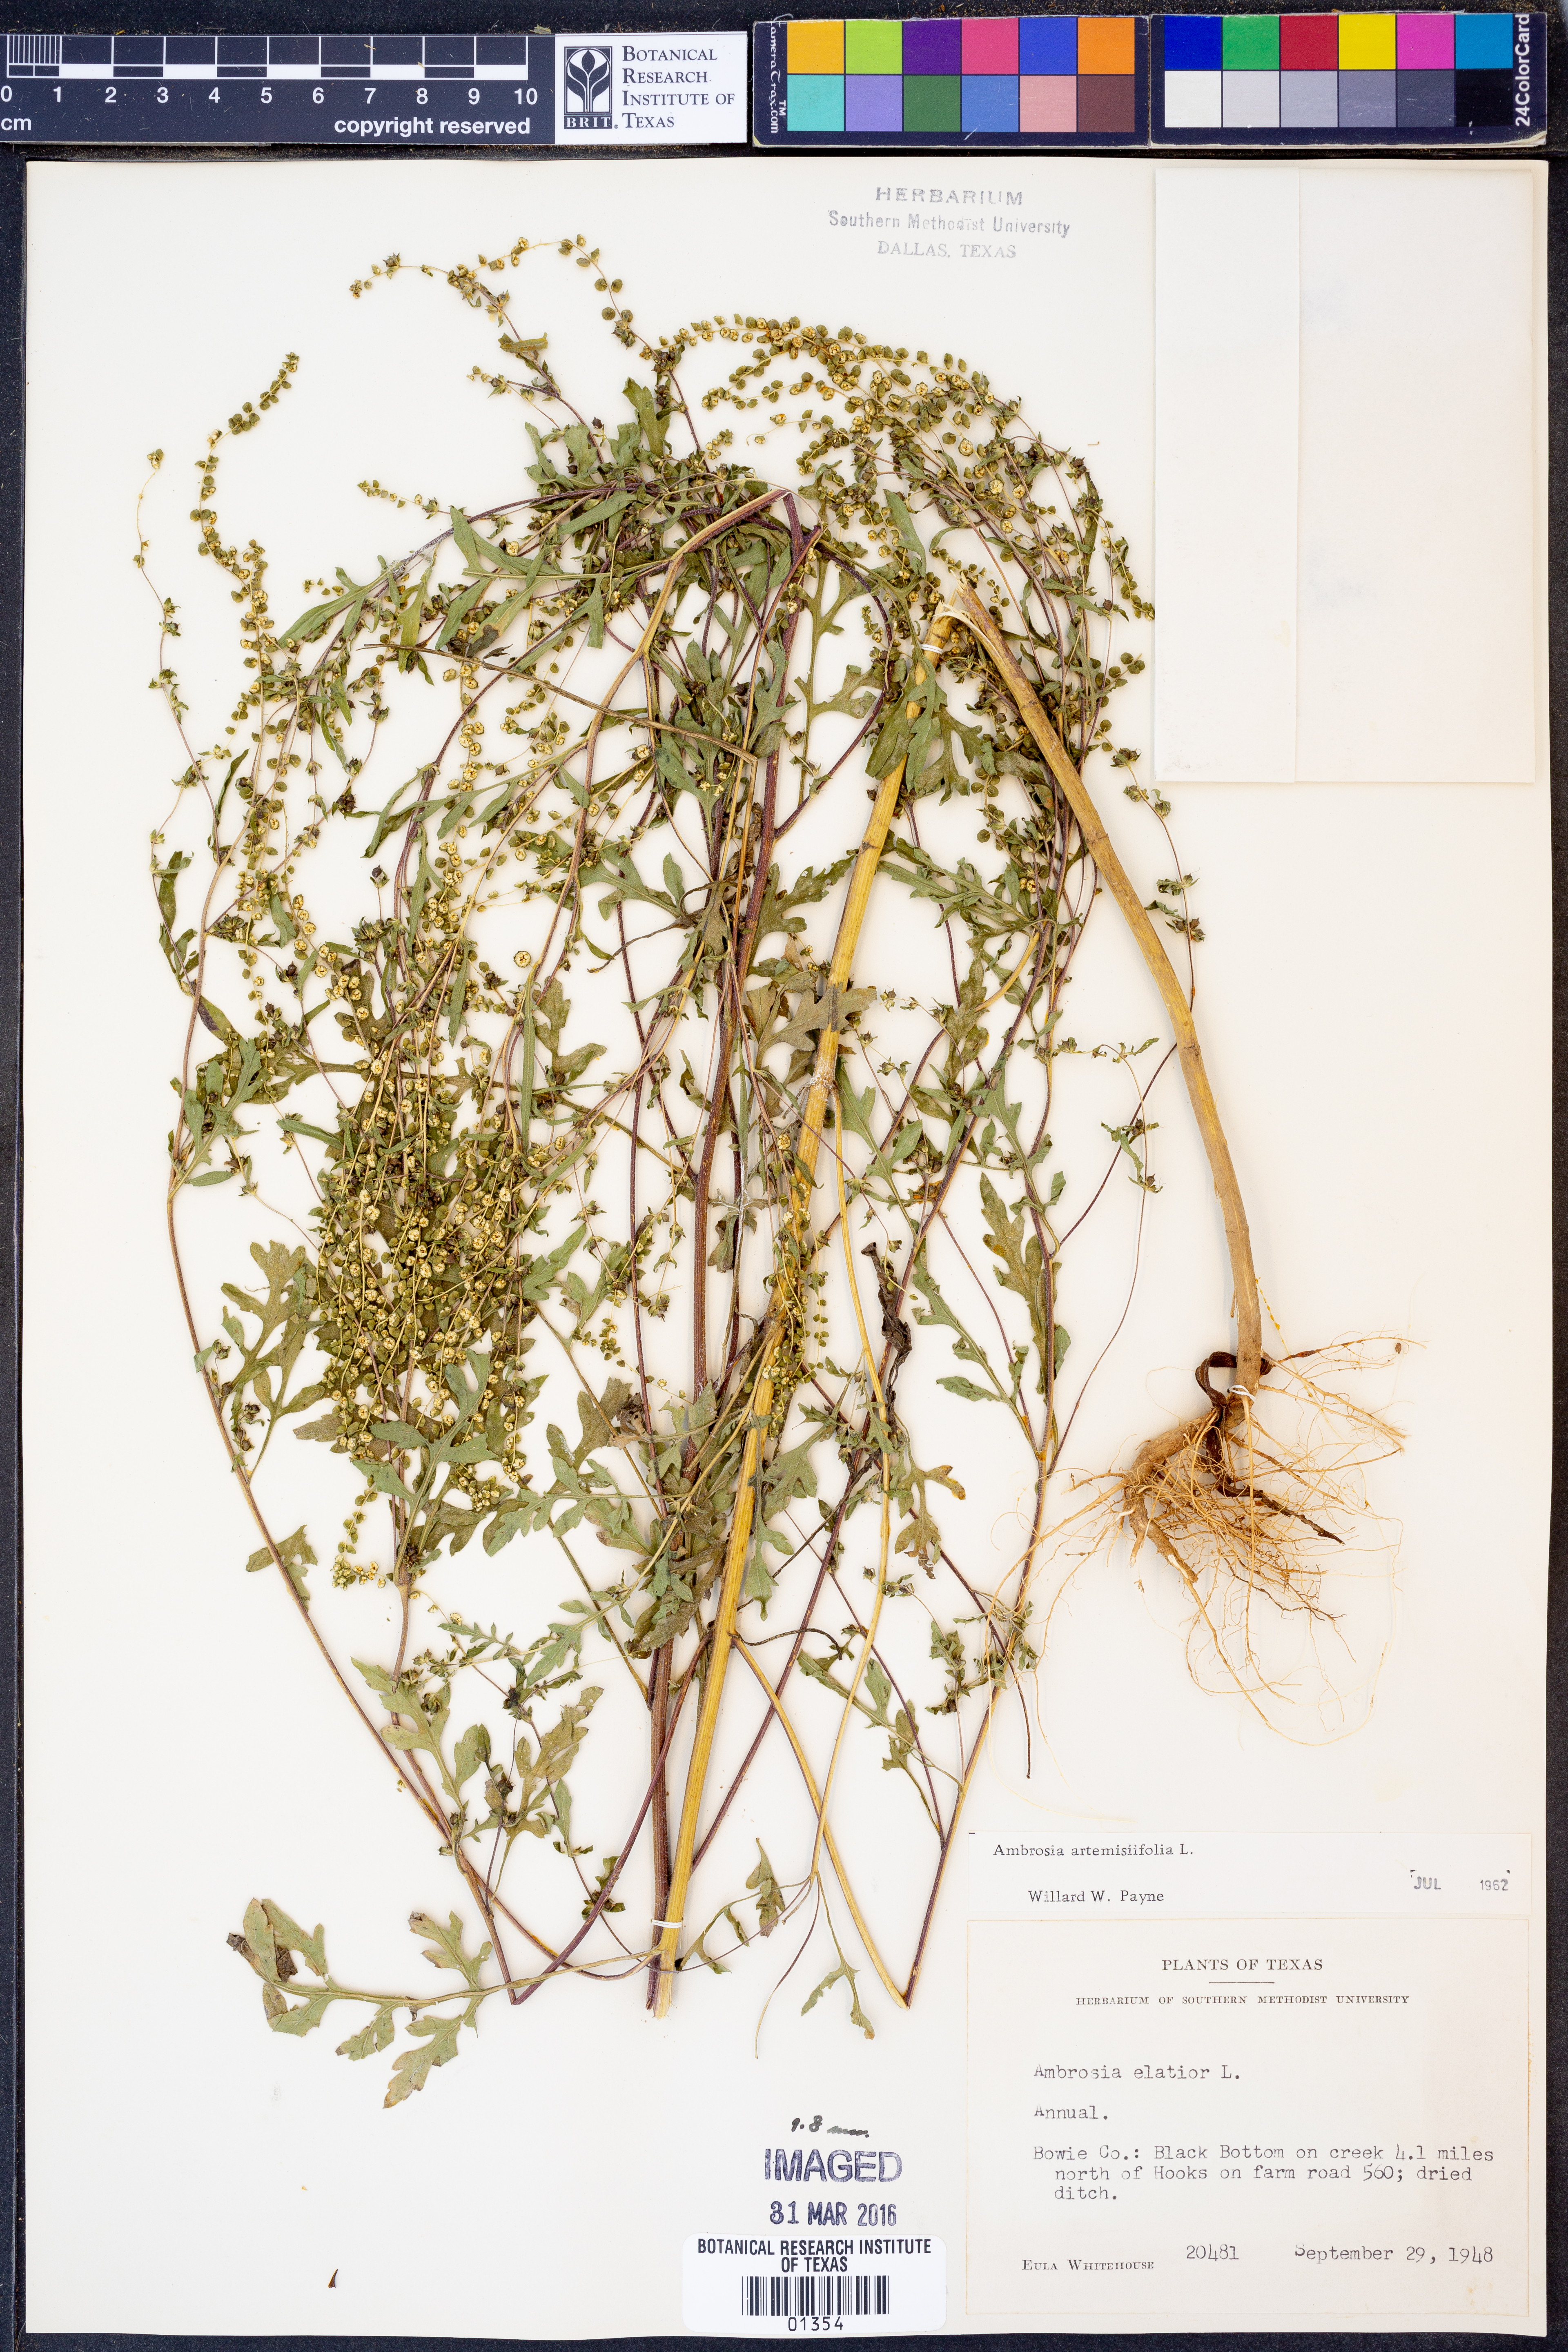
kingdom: Plantae
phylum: Tracheophyta
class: Magnoliopsida
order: Asterales
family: Asteraceae
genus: Ambrosia
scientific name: Ambrosia artemisiifolia
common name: Annual ragweed
